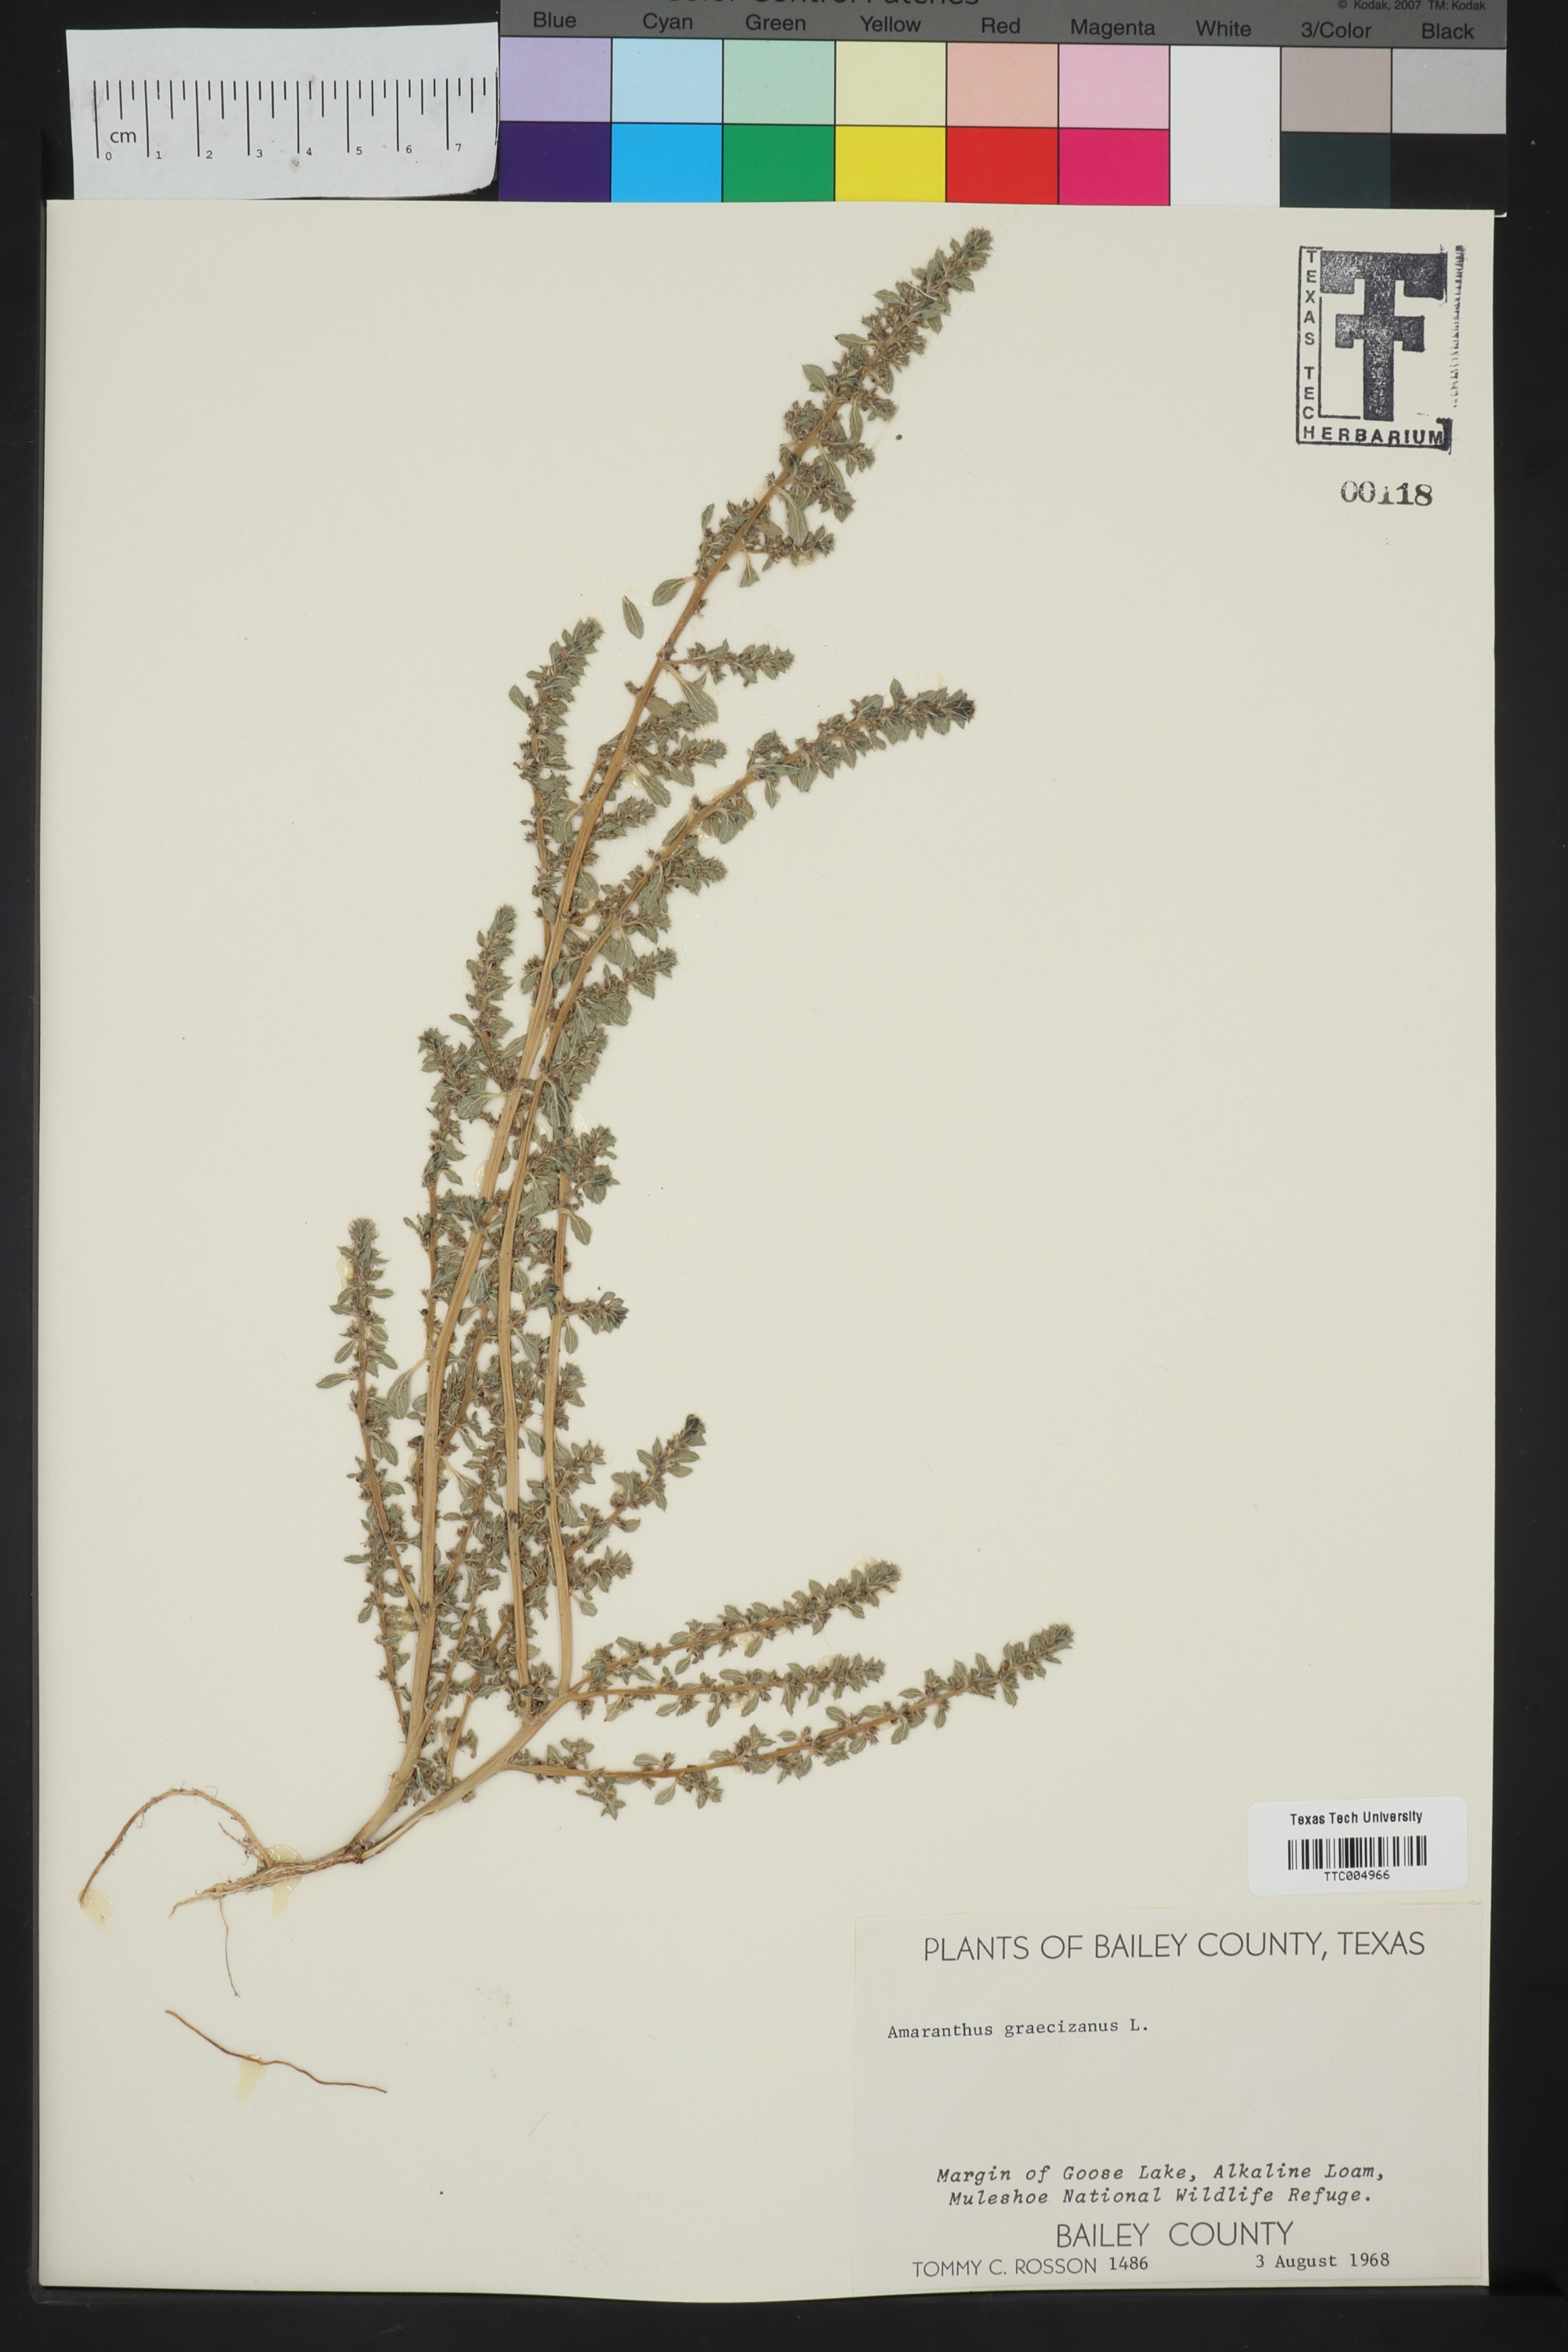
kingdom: Plantae
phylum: Tracheophyta
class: Magnoliopsida
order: Caryophyllales
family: Amaranthaceae
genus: Amaranthus
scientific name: Amaranthus graecizans
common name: Mediterranean amaranth
